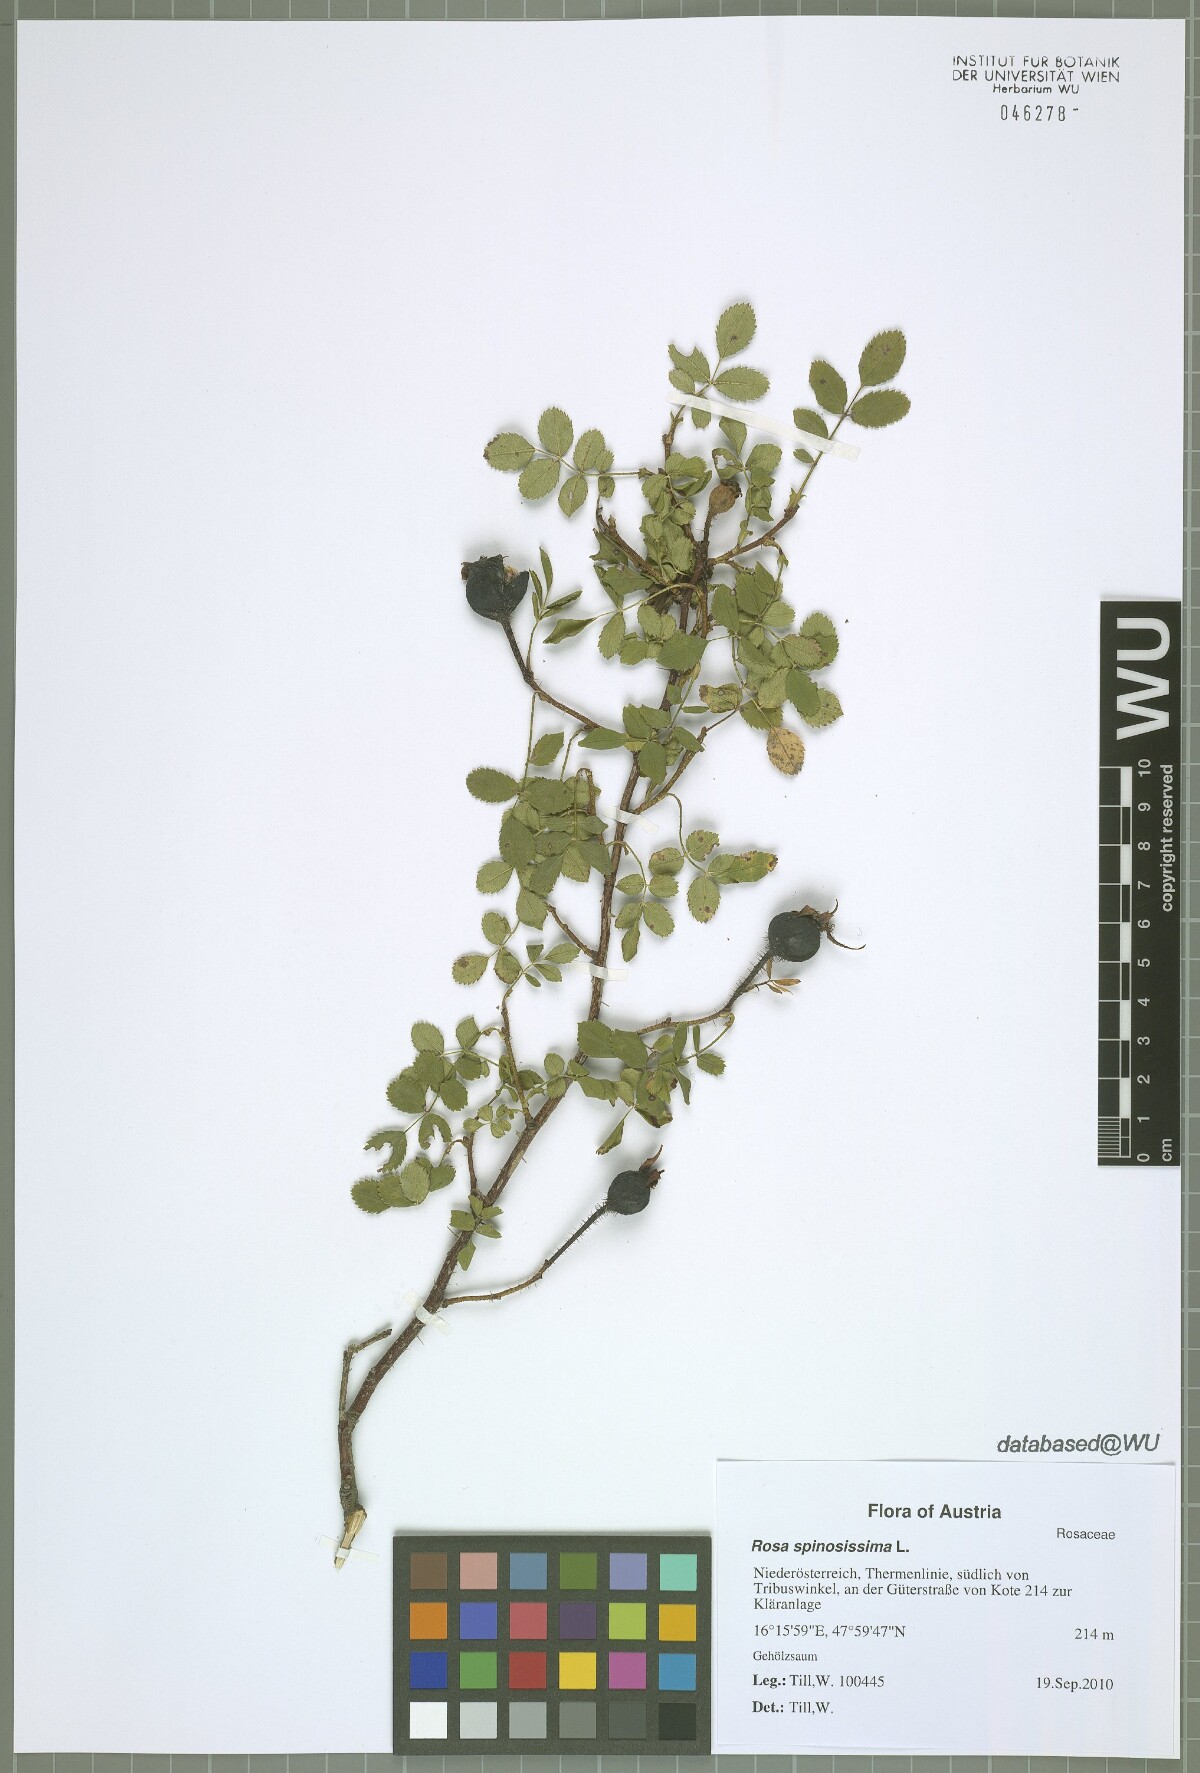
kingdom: Plantae
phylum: Tracheophyta
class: Magnoliopsida
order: Rosales
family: Rosaceae
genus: Rosa
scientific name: Rosa spinosissima
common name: Burnet rose
